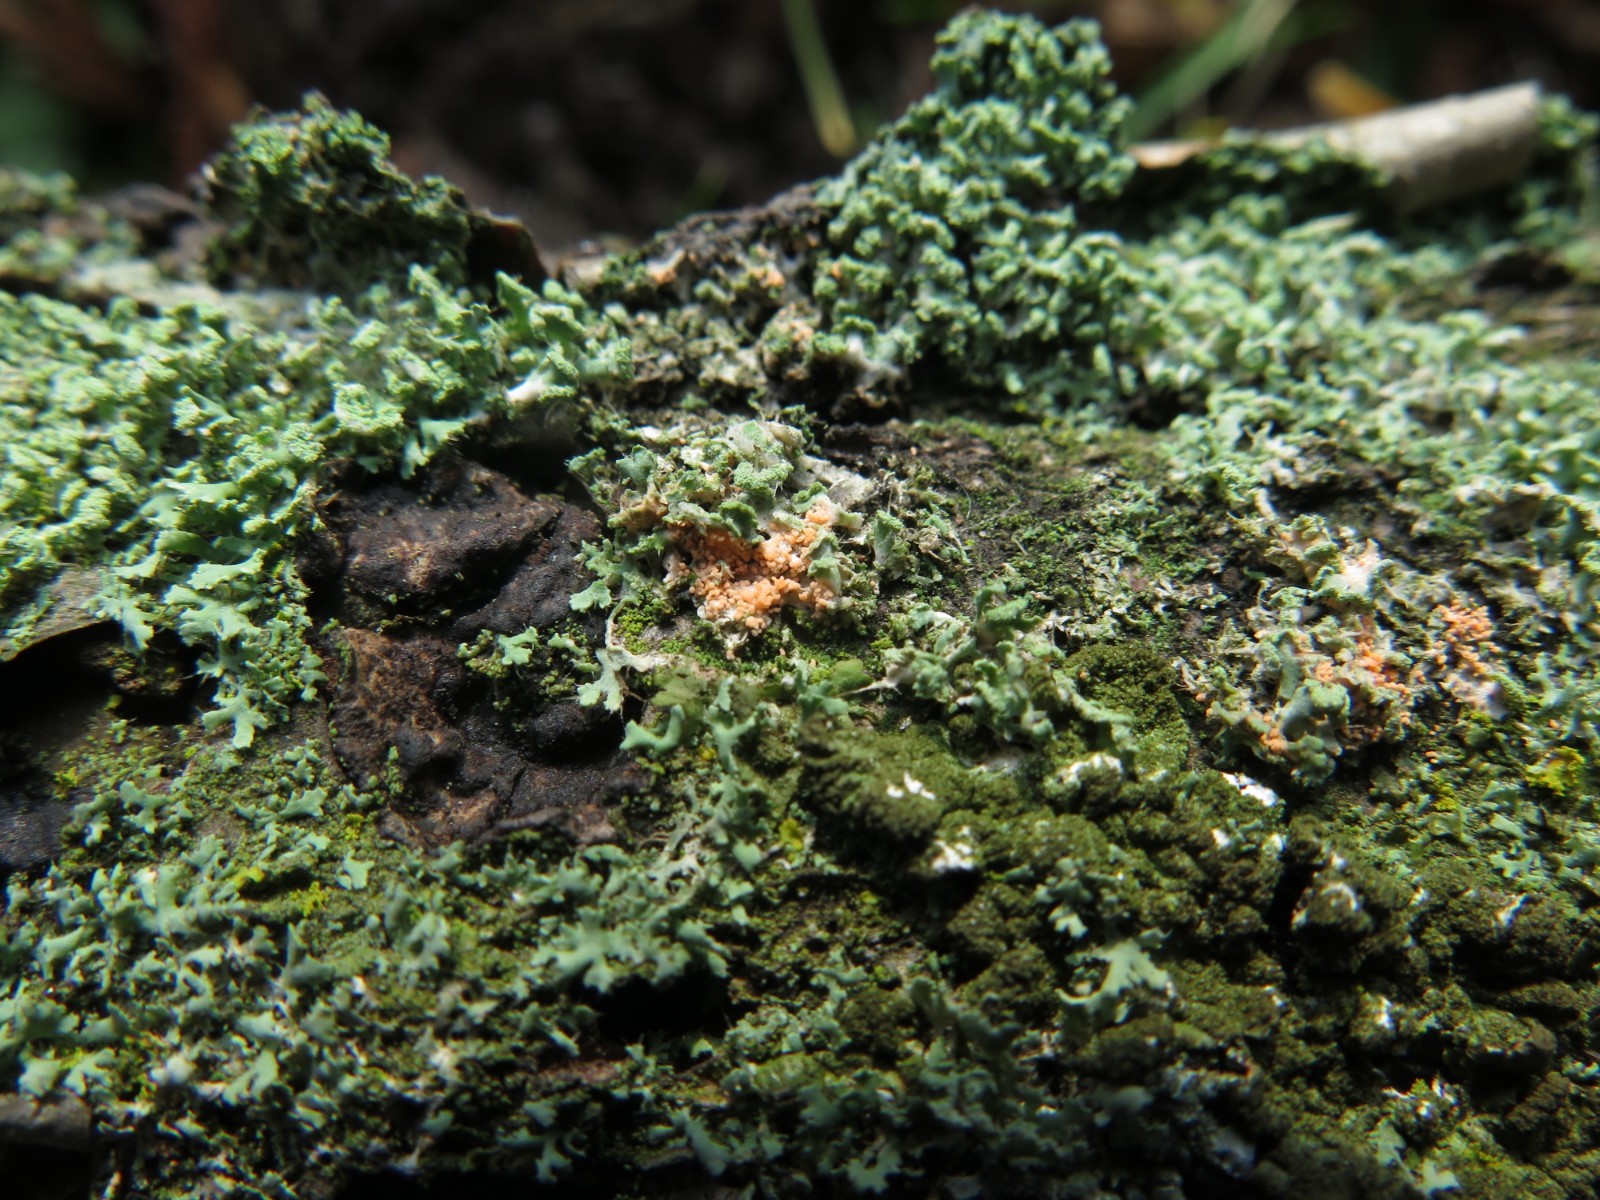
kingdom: Fungi
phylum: Basidiomycota
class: Agaricomycetes
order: Corticiales
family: Corticiaceae
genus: Erythricium
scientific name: Erythricium aurantiacum
